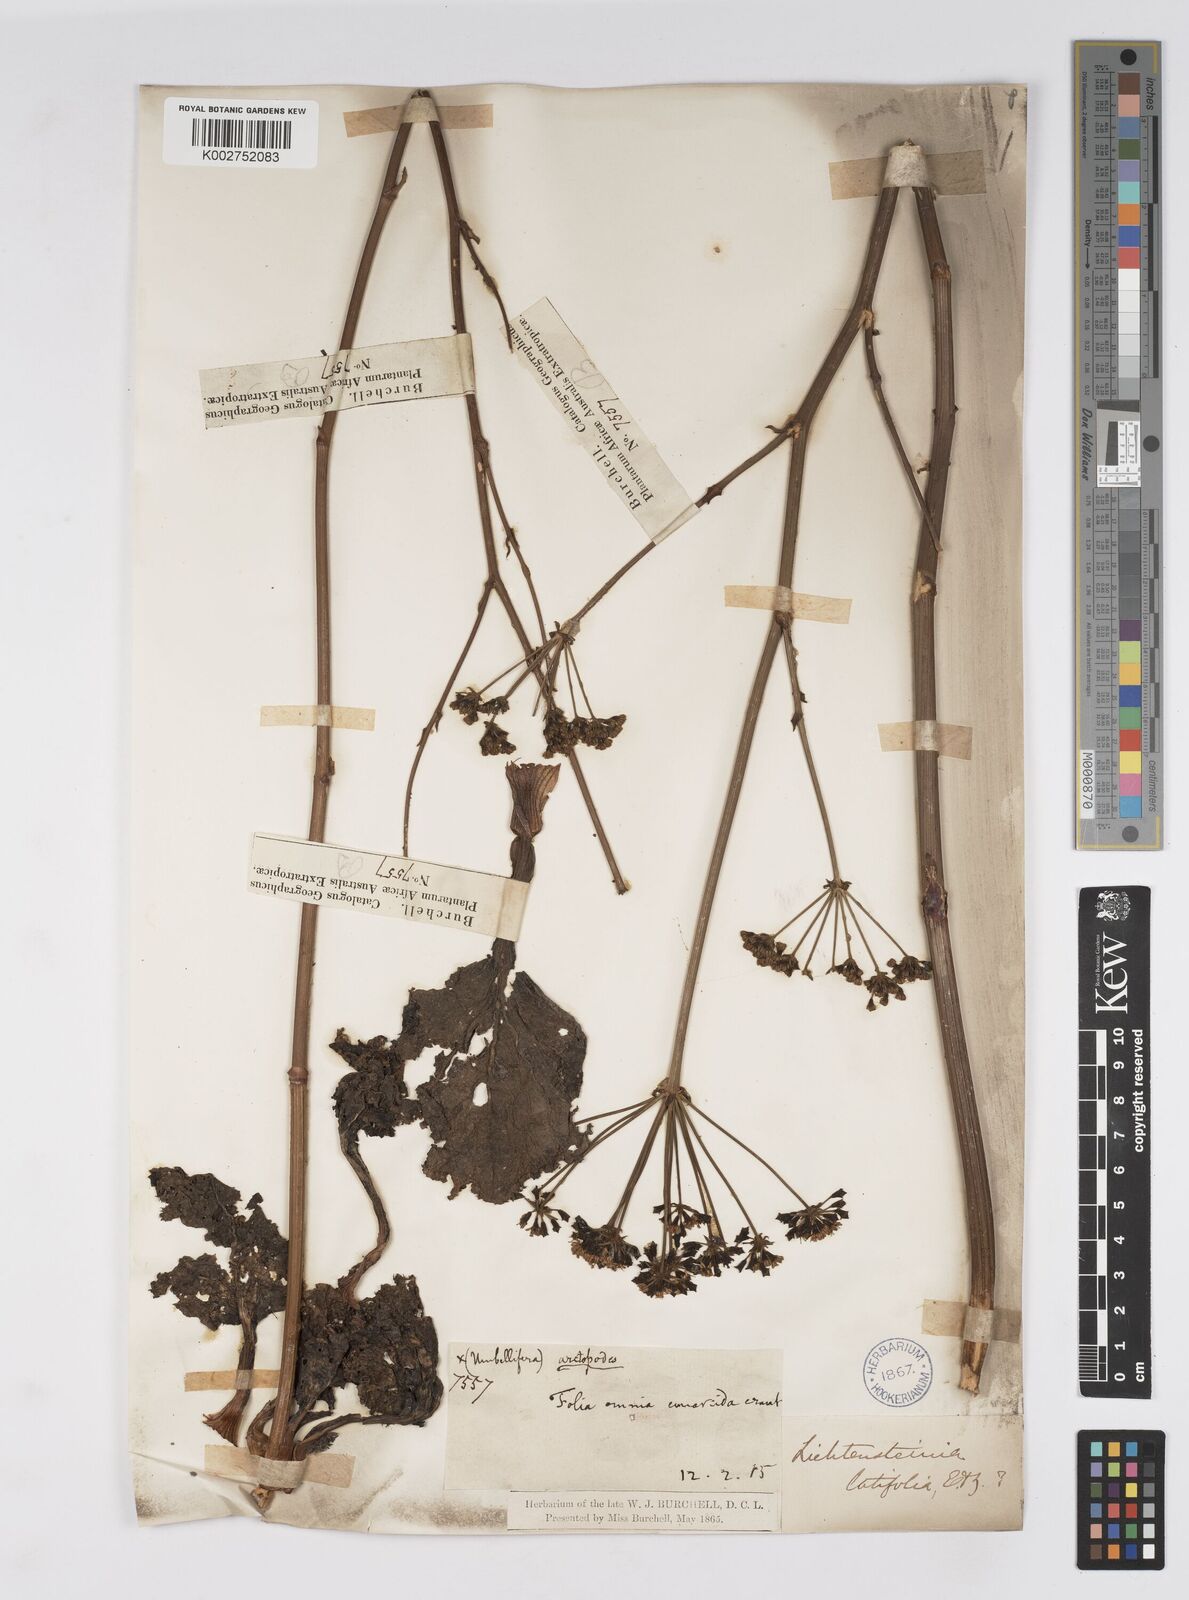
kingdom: Plantae
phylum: Tracheophyta
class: Magnoliopsida
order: Apiales
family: Apiaceae
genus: Lichtensteinia
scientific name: Lichtensteinia latifolia
